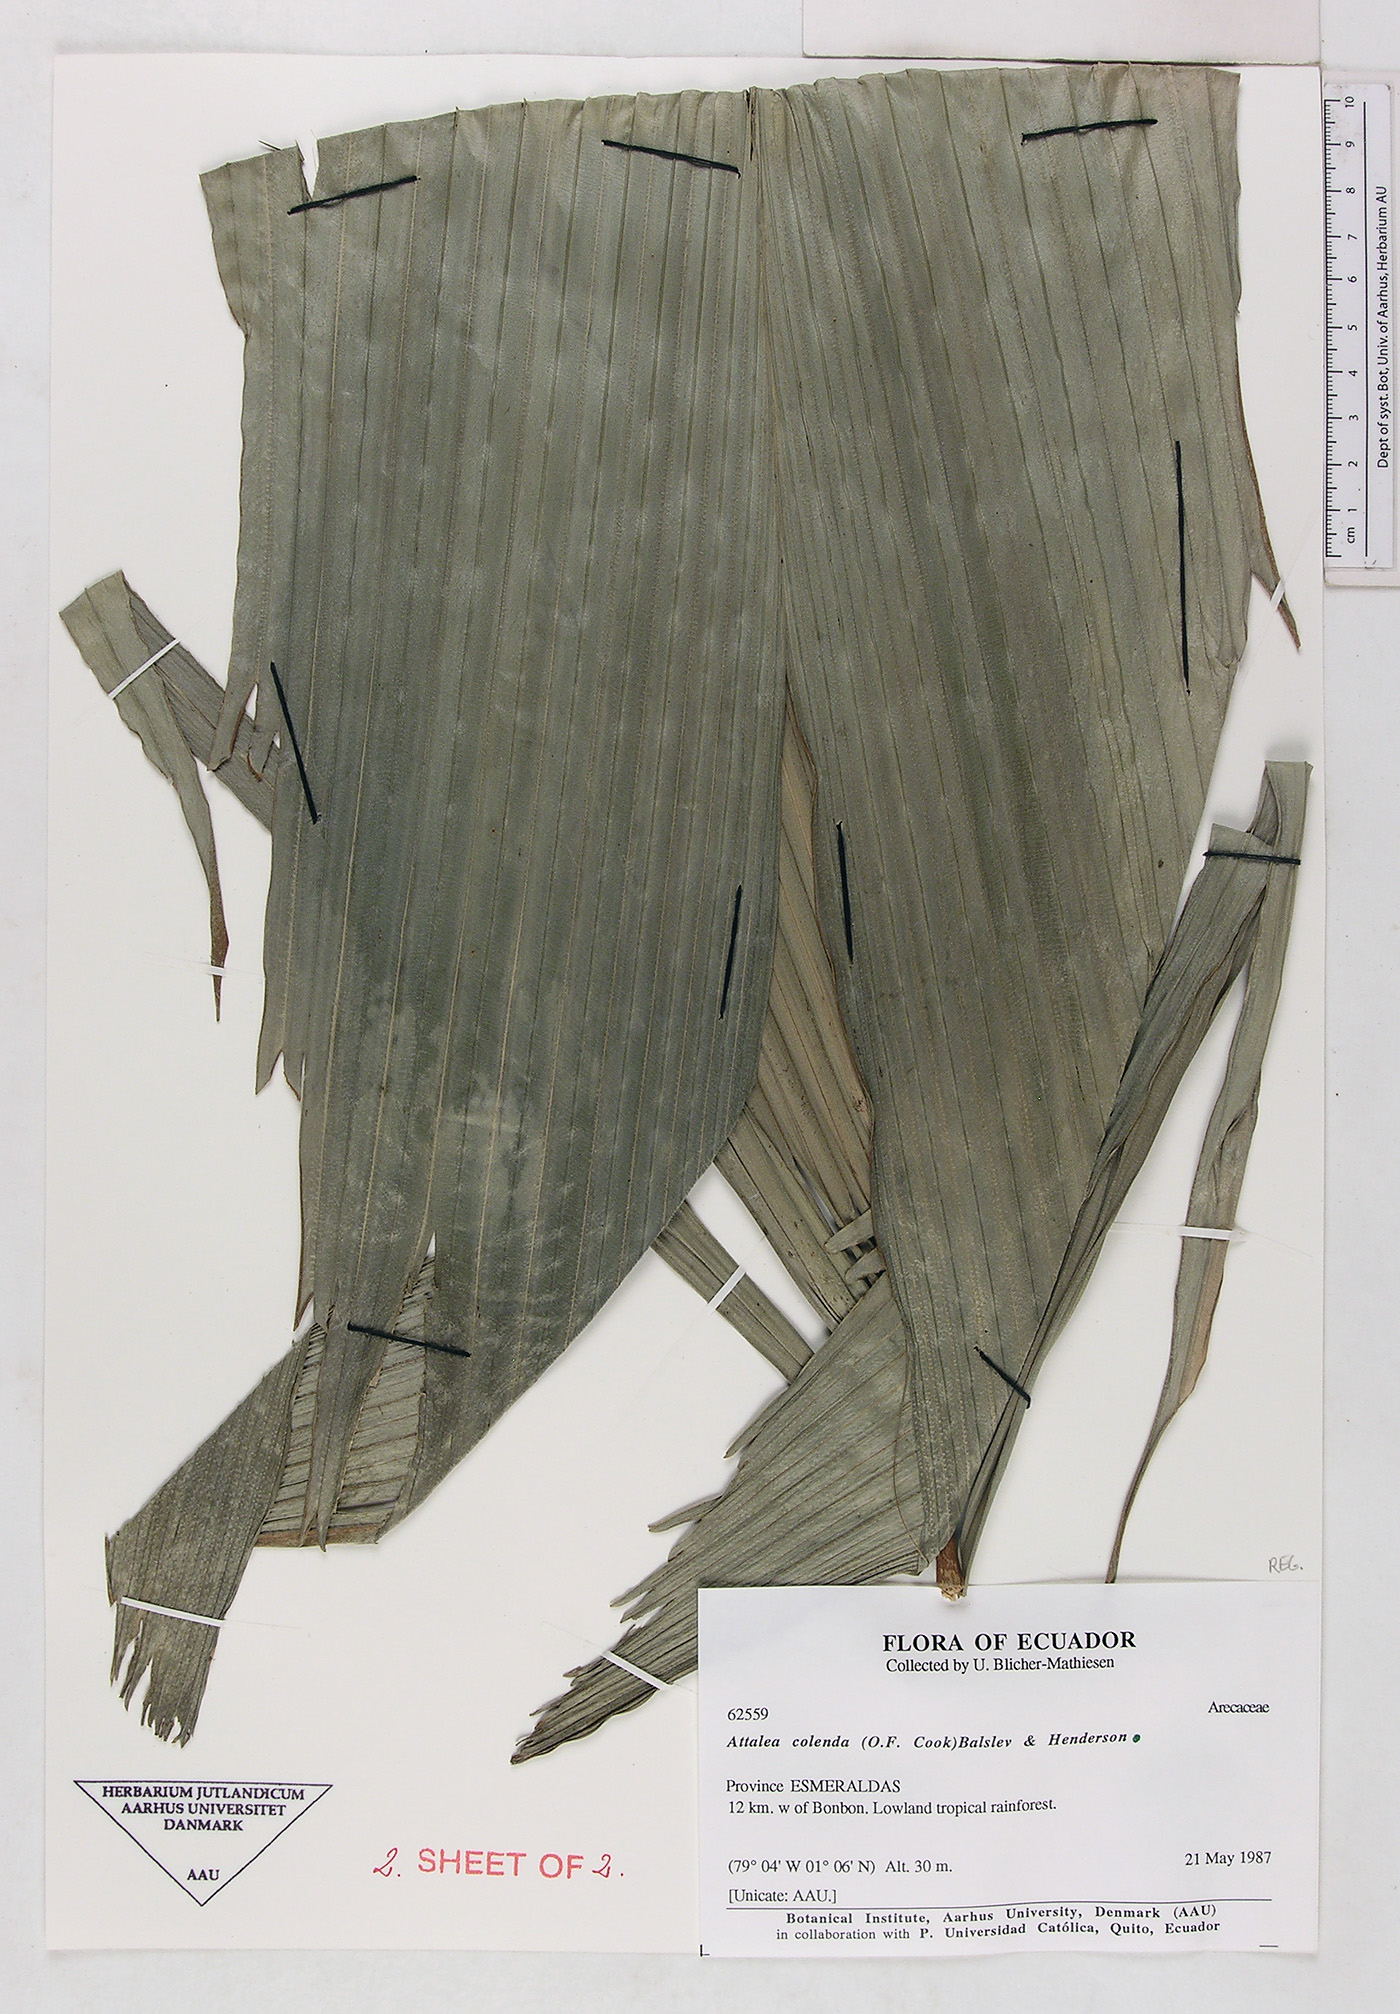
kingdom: Plantae
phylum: Tracheophyta
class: Liliopsida
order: Arecales
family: Arecaceae
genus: Attalea
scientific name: Attalea colenda
